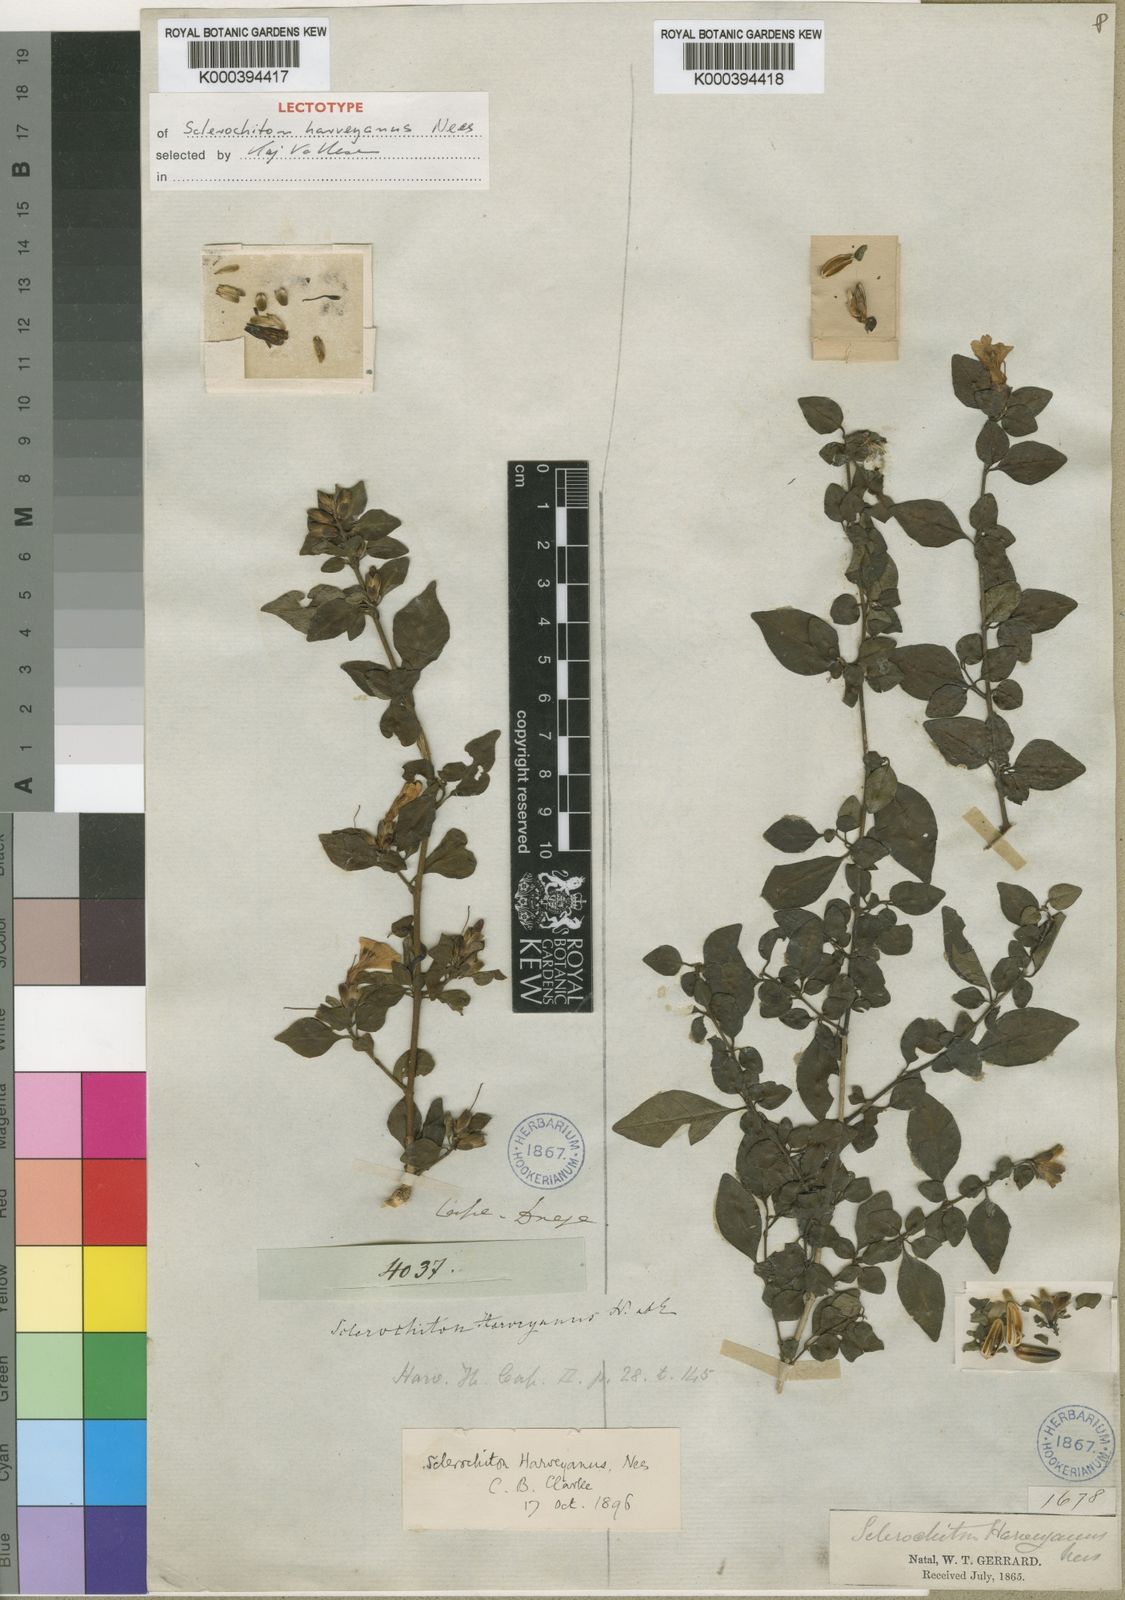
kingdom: Plantae
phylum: Tracheophyta
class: Magnoliopsida
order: Lamiales
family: Acanthaceae
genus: Sclerochiton
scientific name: Sclerochiton harveyanus
